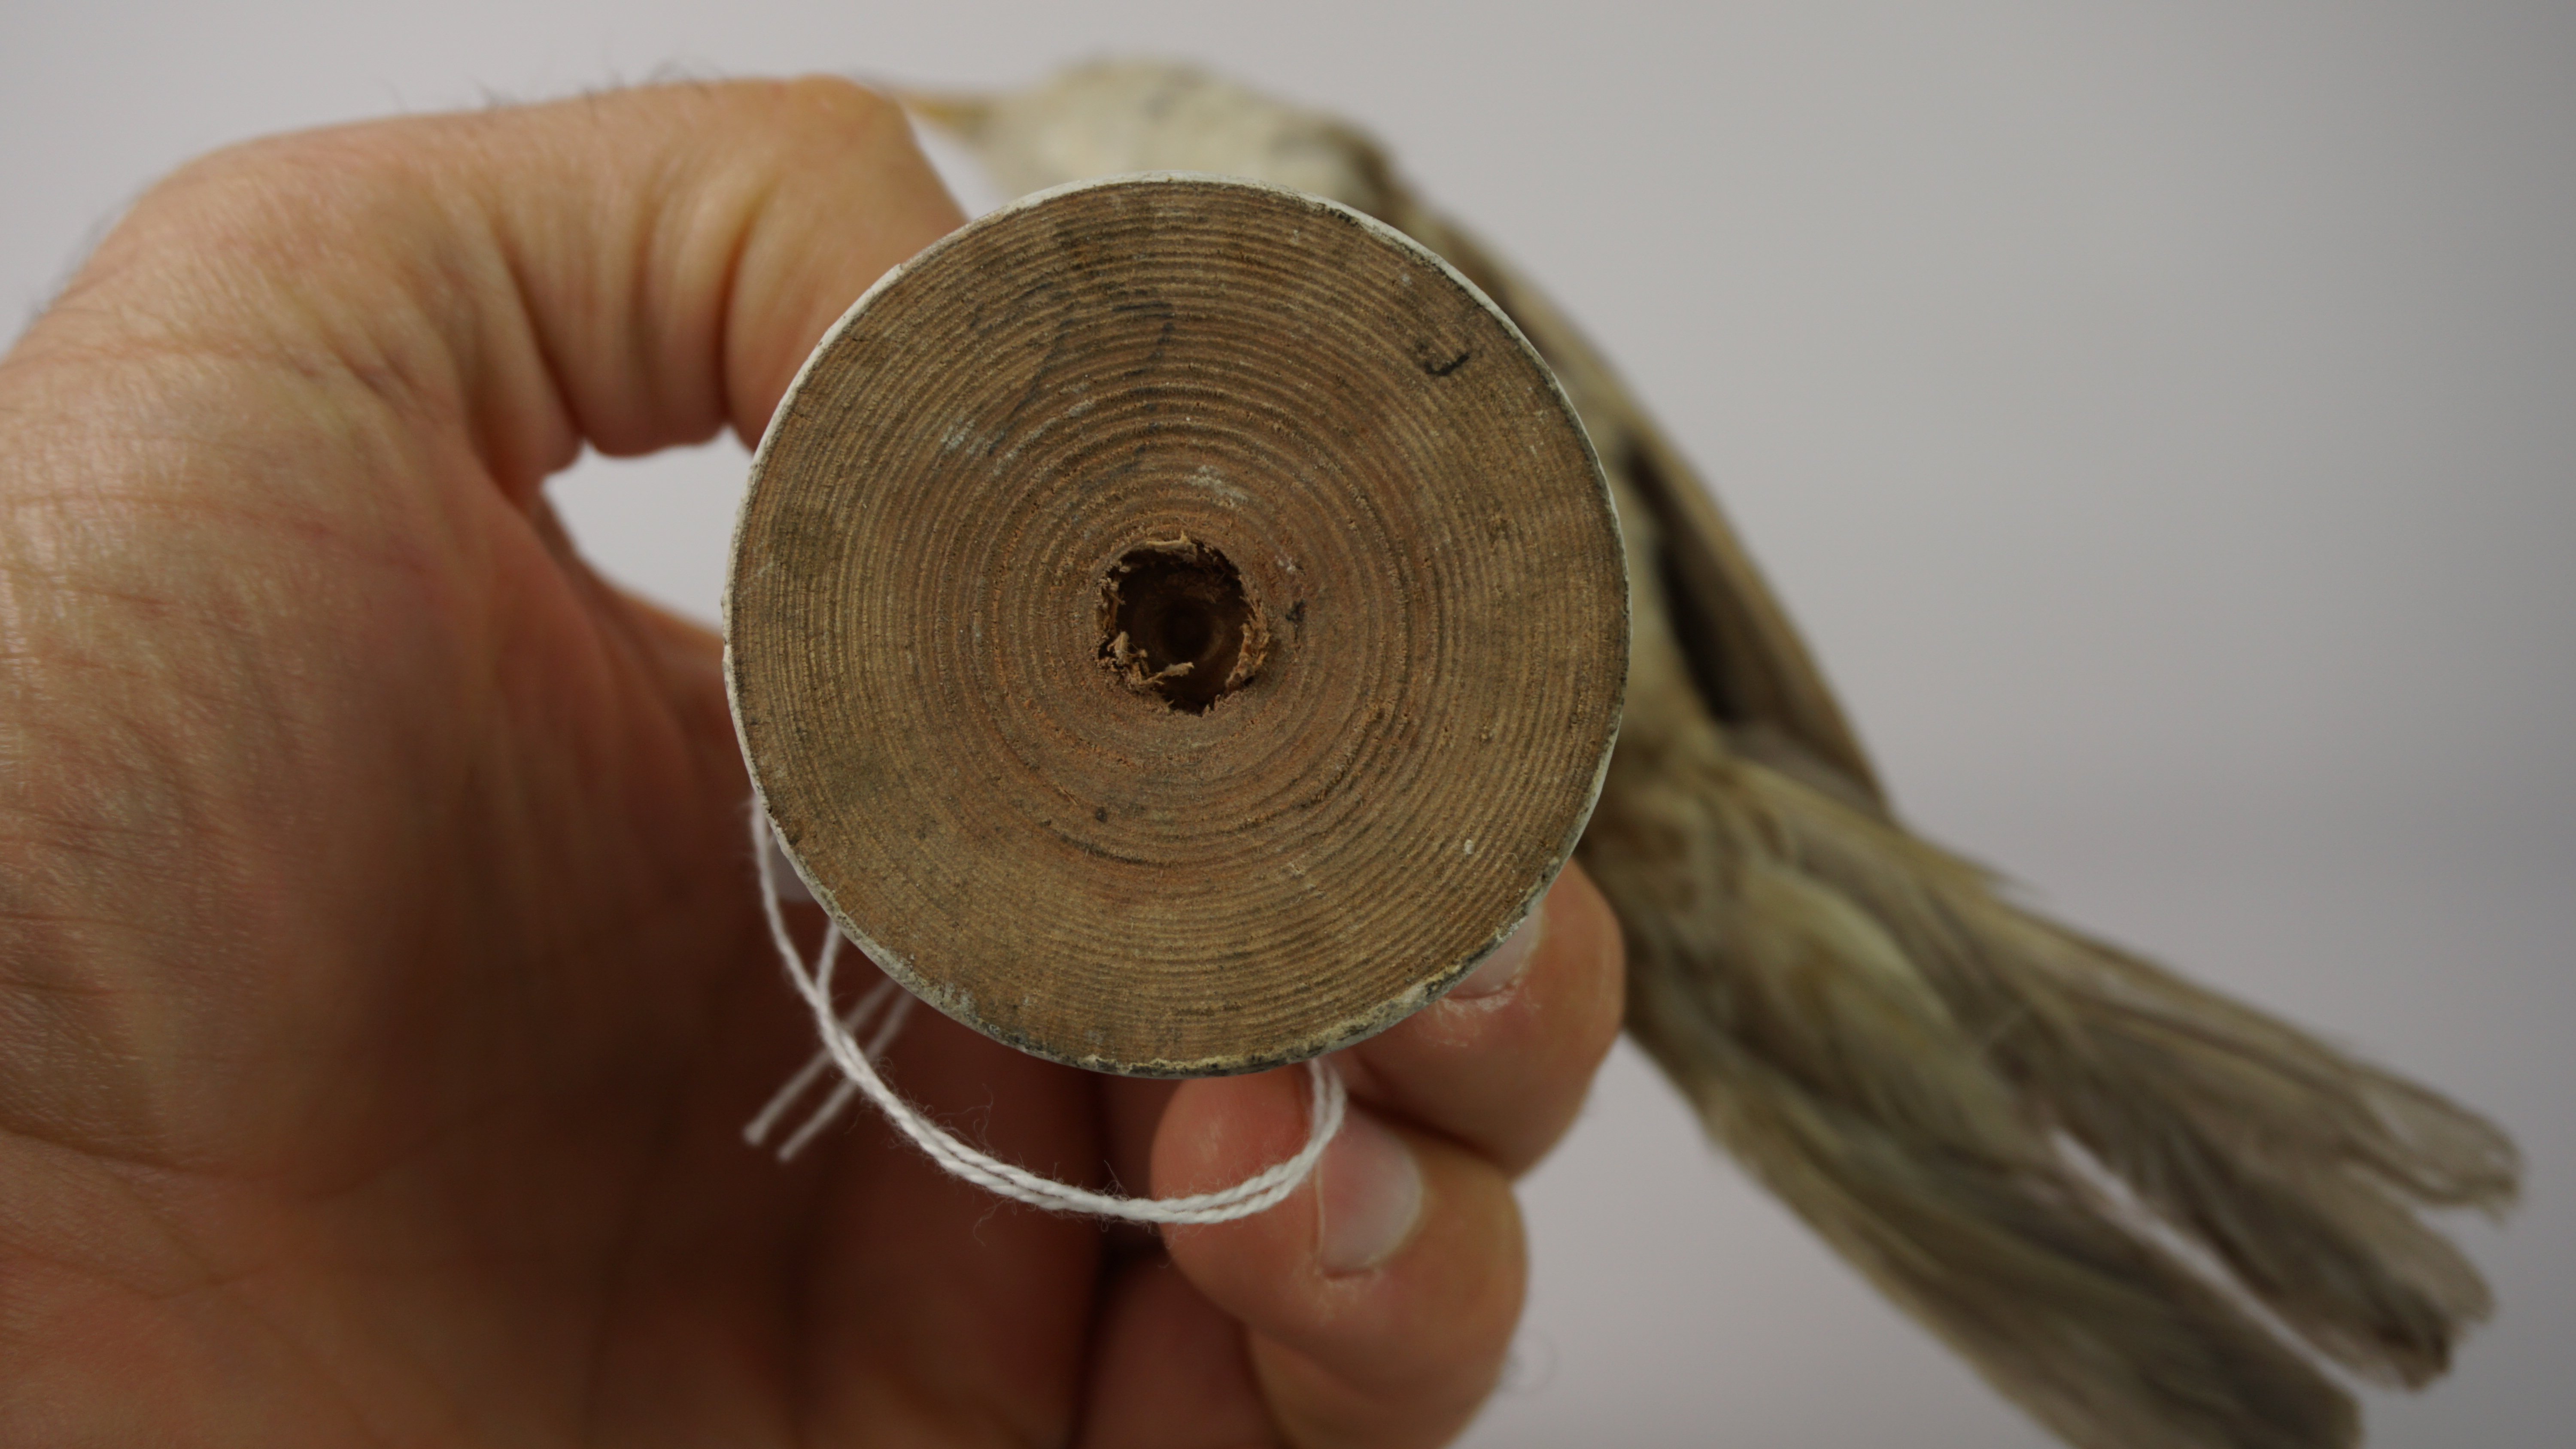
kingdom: Animalia
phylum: Chordata
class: Aves
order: Passeriformes
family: Sylviidae
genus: Sylvia
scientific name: Sylvia nisoria
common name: Barred warbler
